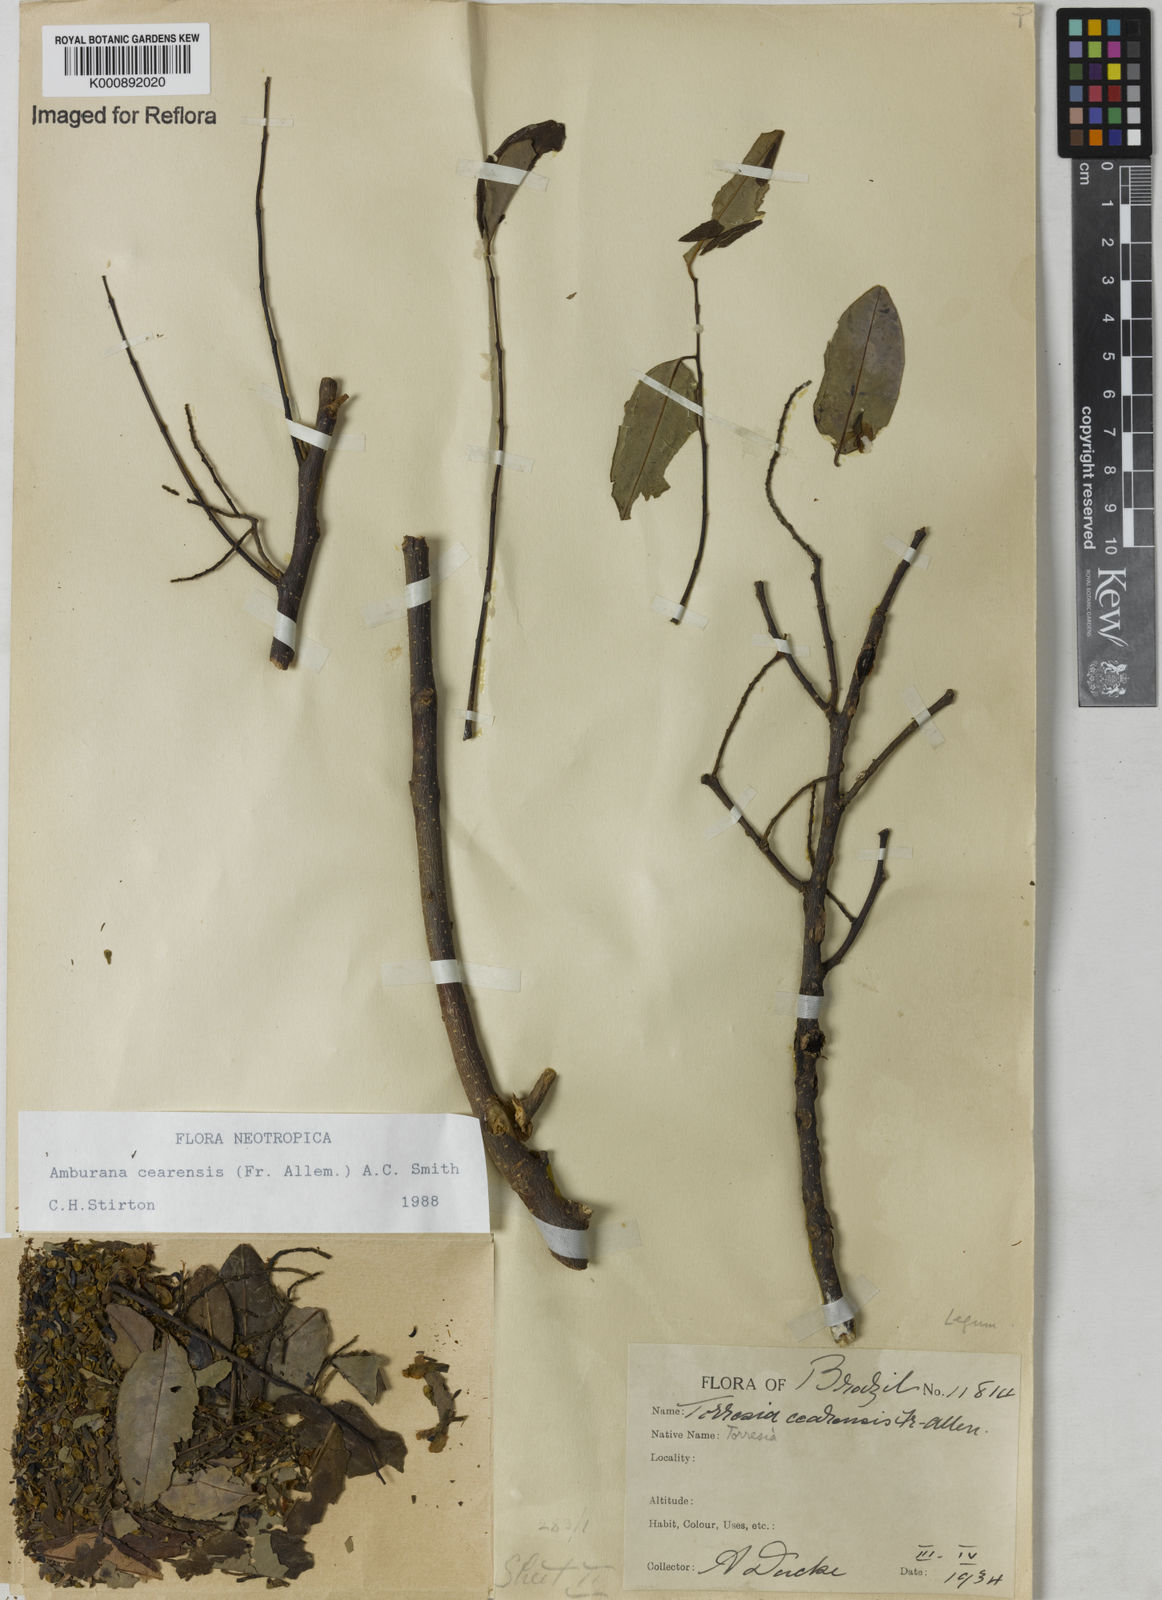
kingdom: Plantae
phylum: Tracheophyta
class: Magnoliopsida
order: Fabales
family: Fabaceae
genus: Amburana
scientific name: Amburana
